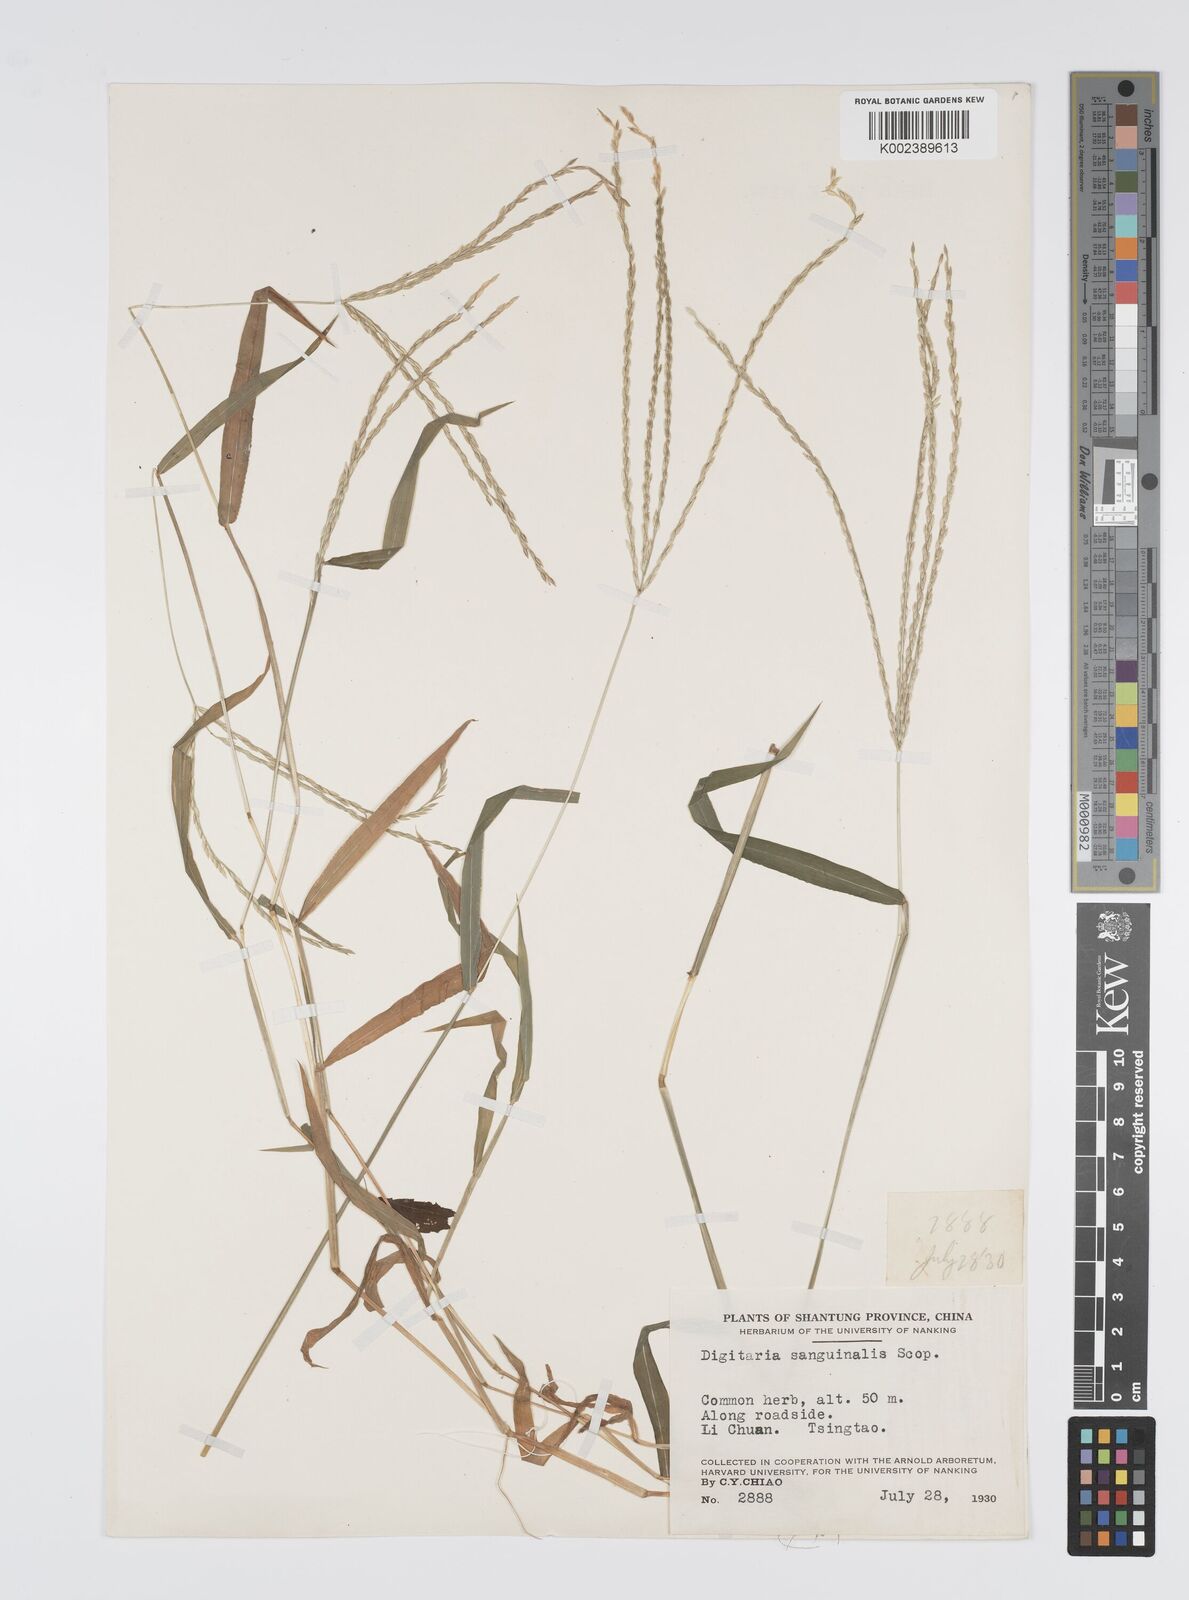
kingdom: Plantae
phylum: Tracheophyta
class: Liliopsida
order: Poales
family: Poaceae
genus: Digitaria
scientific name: Digitaria ciliaris
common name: Tropical finger-grass
